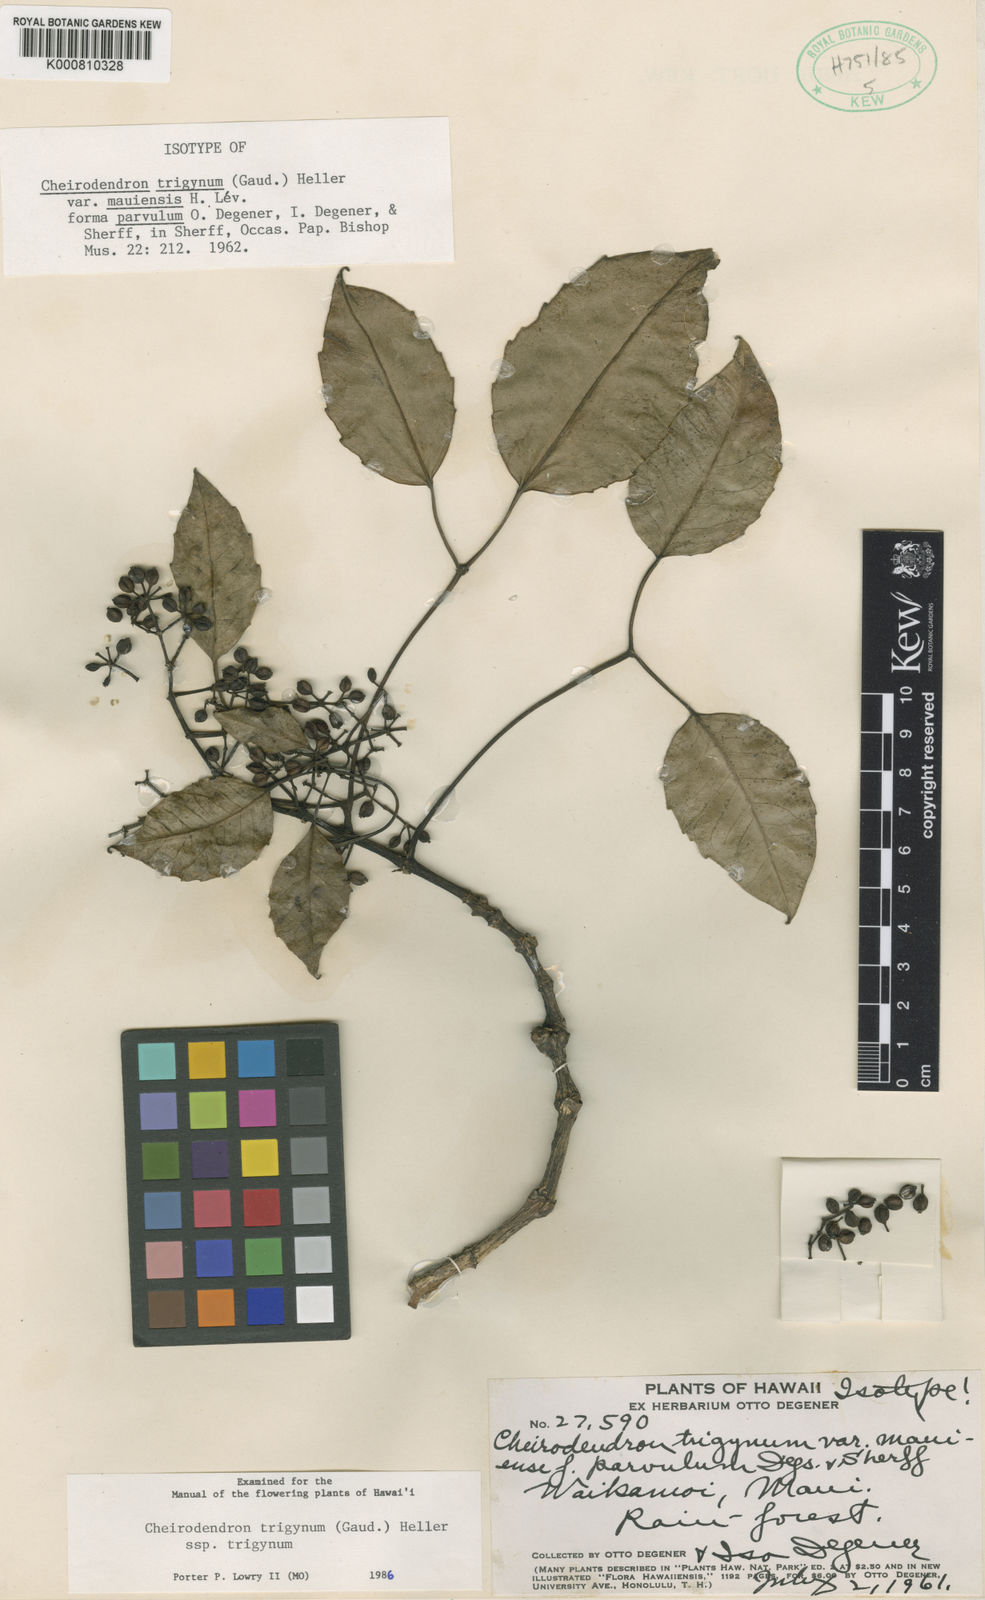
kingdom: Plantae
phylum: Tracheophyta
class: Magnoliopsida
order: Apiales
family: Araliaceae
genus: Cheirodendron
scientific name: Cheirodendron trigynum
